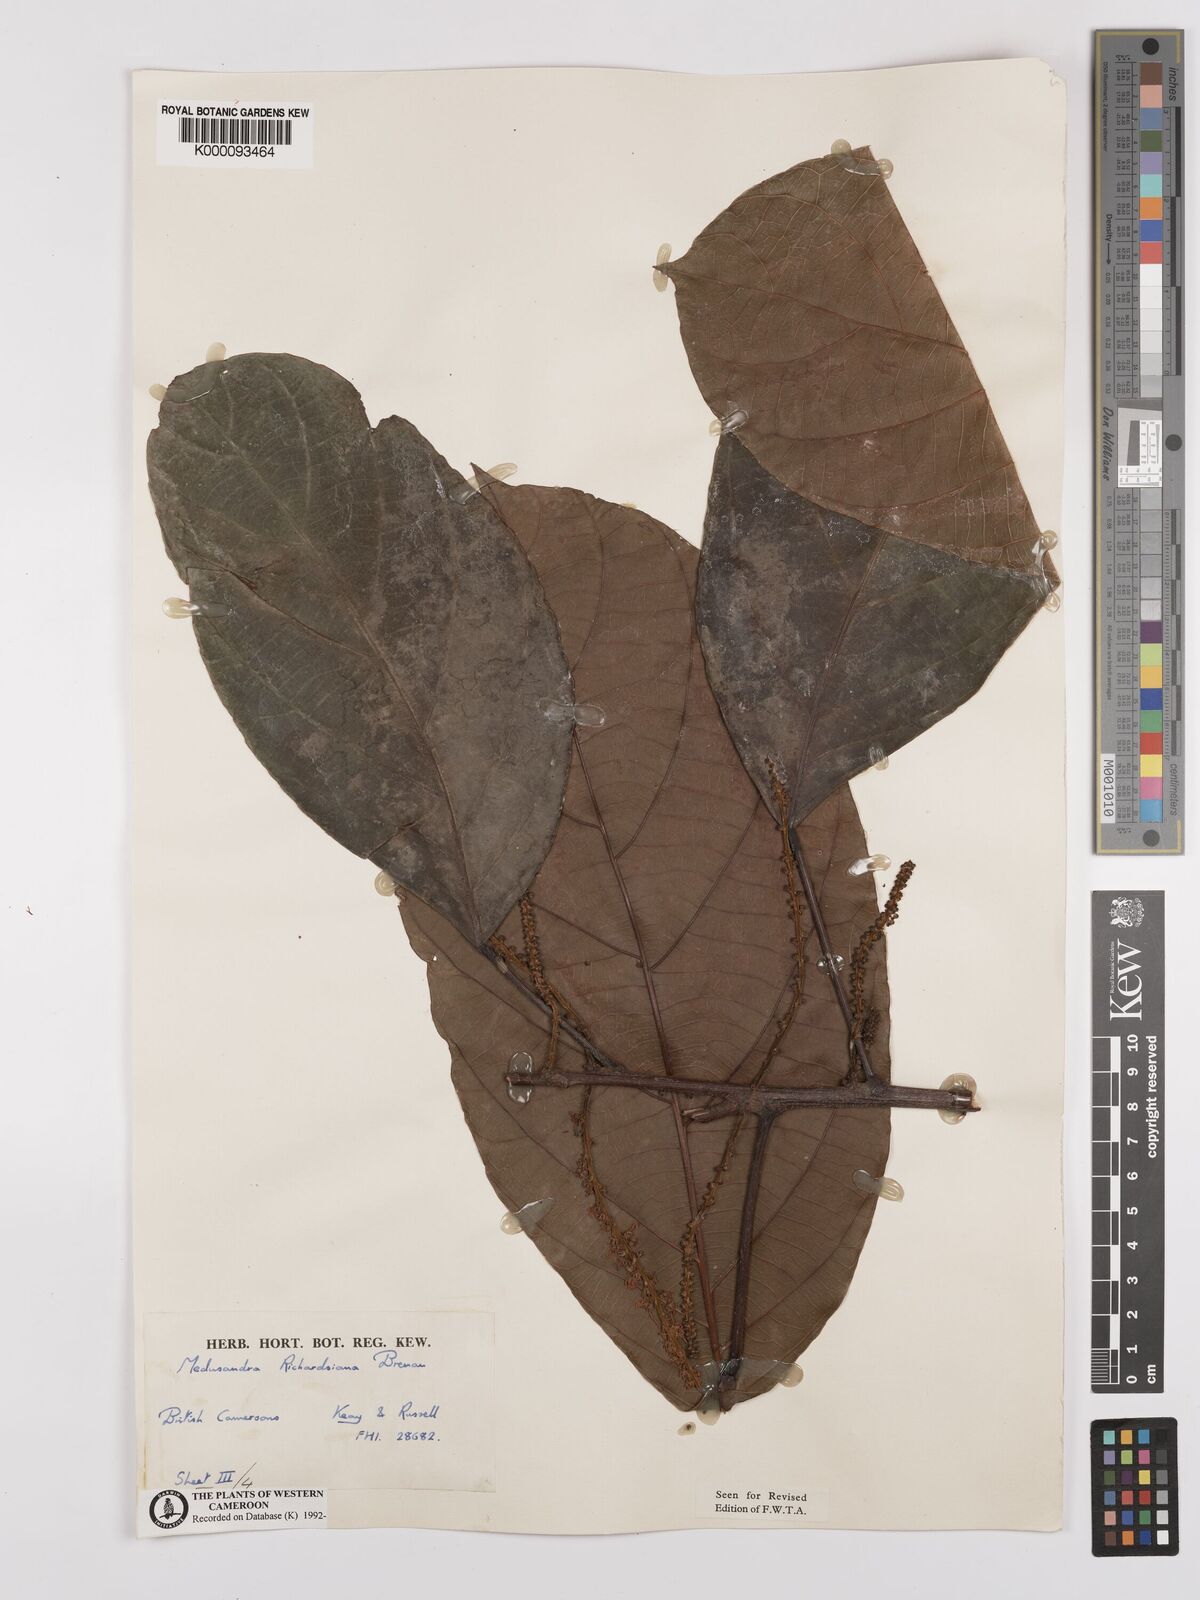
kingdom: Plantae
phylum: Tracheophyta
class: Magnoliopsida
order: Saxifragales
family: Peridiscaceae
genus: Medusandra
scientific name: Medusandra richardsiana
